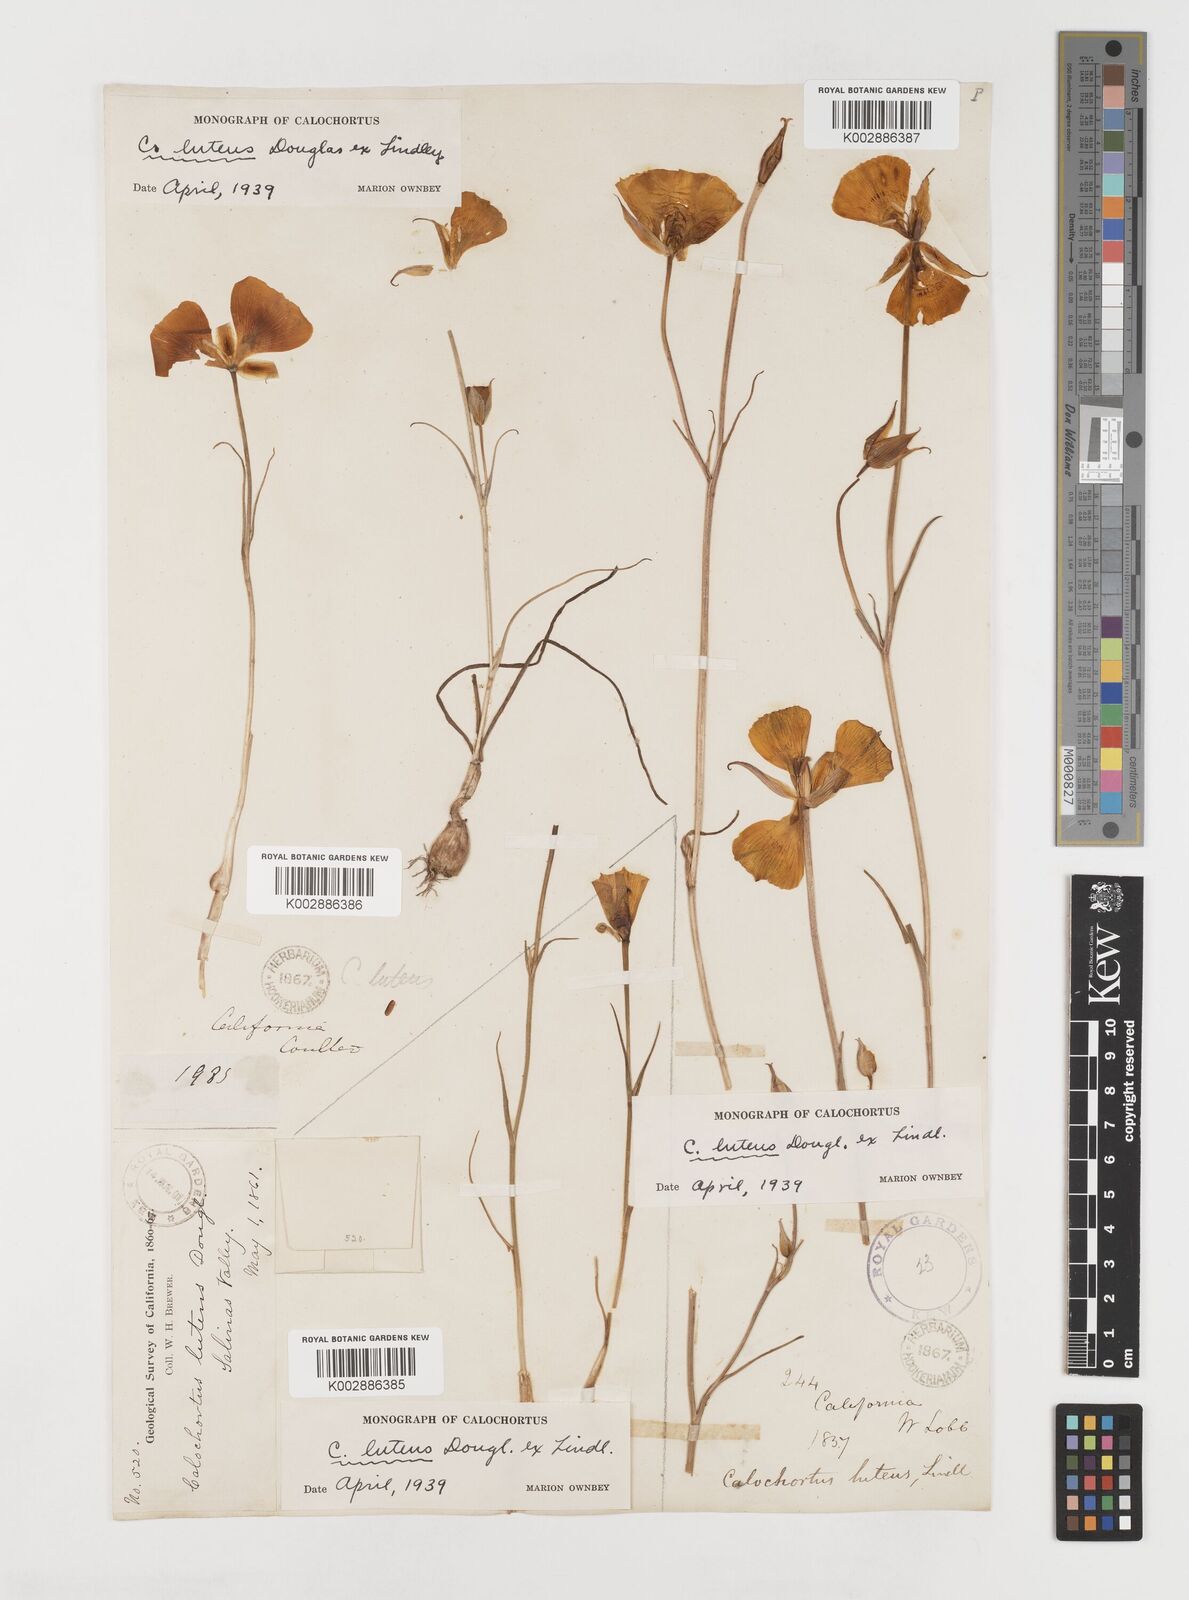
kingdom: Plantae
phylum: Tracheophyta
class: Liliopsida
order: Liliales
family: Liliaceae
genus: Calochortus
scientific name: Calochortus nuttallii
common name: Sego-lily
